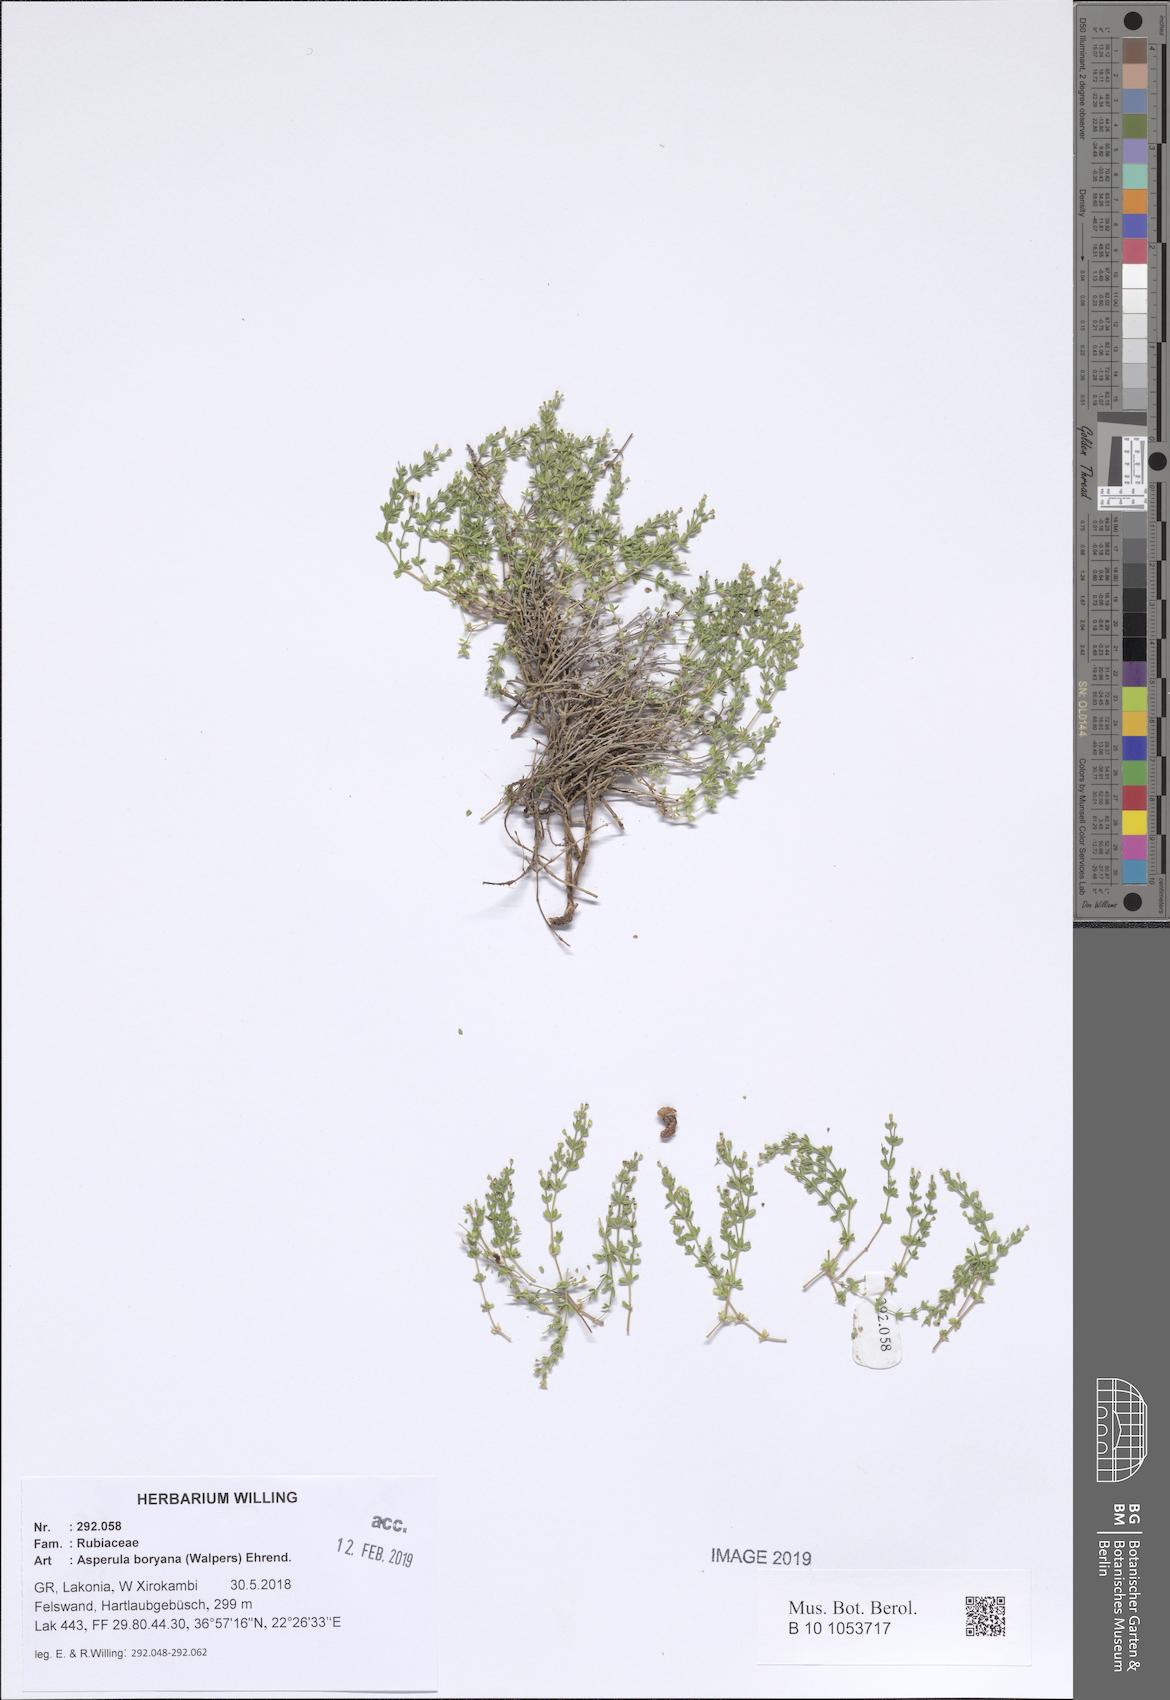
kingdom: Plantae
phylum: Tracheophyta
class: Magnoliopsida
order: Gentianales
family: Rubiaceae
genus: Thliphthisa
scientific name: Thliphthisa pusilla
